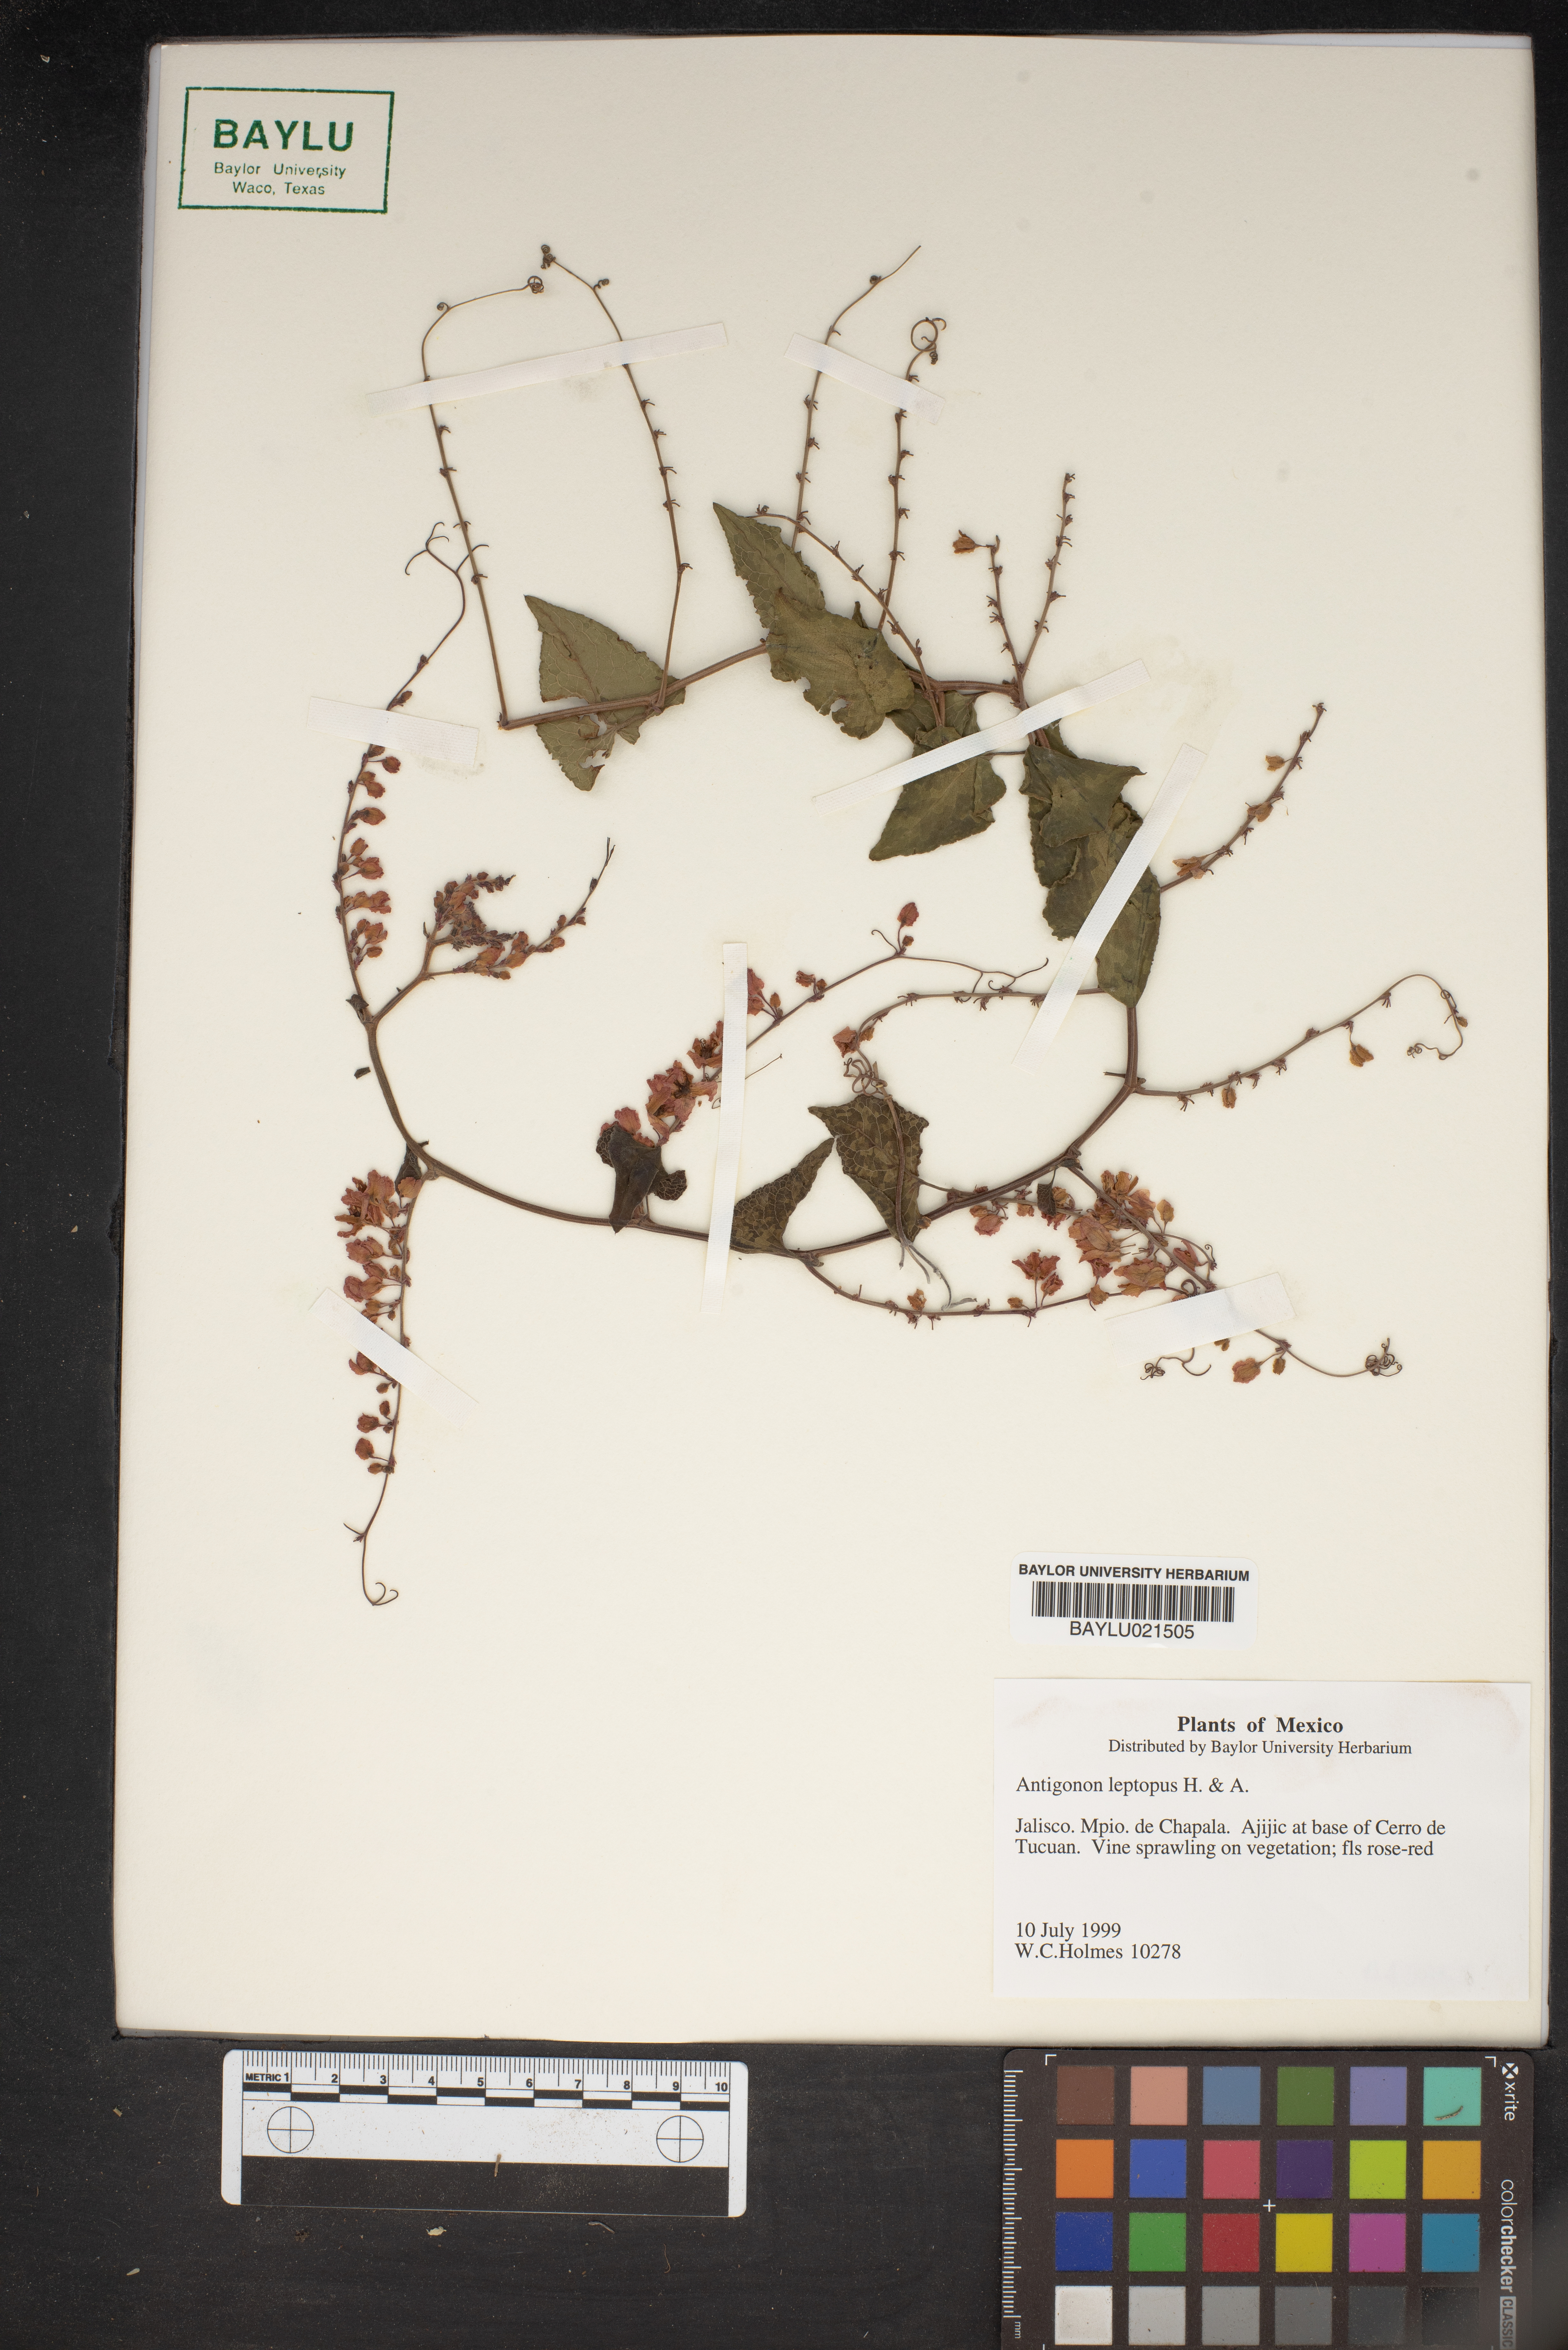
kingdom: Plantae
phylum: Tracheophyta
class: Magnoliopsida
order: Caryophyllales
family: Polygonaceae
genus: Antigonon
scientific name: Antigonon leptopus
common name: Coral vine
